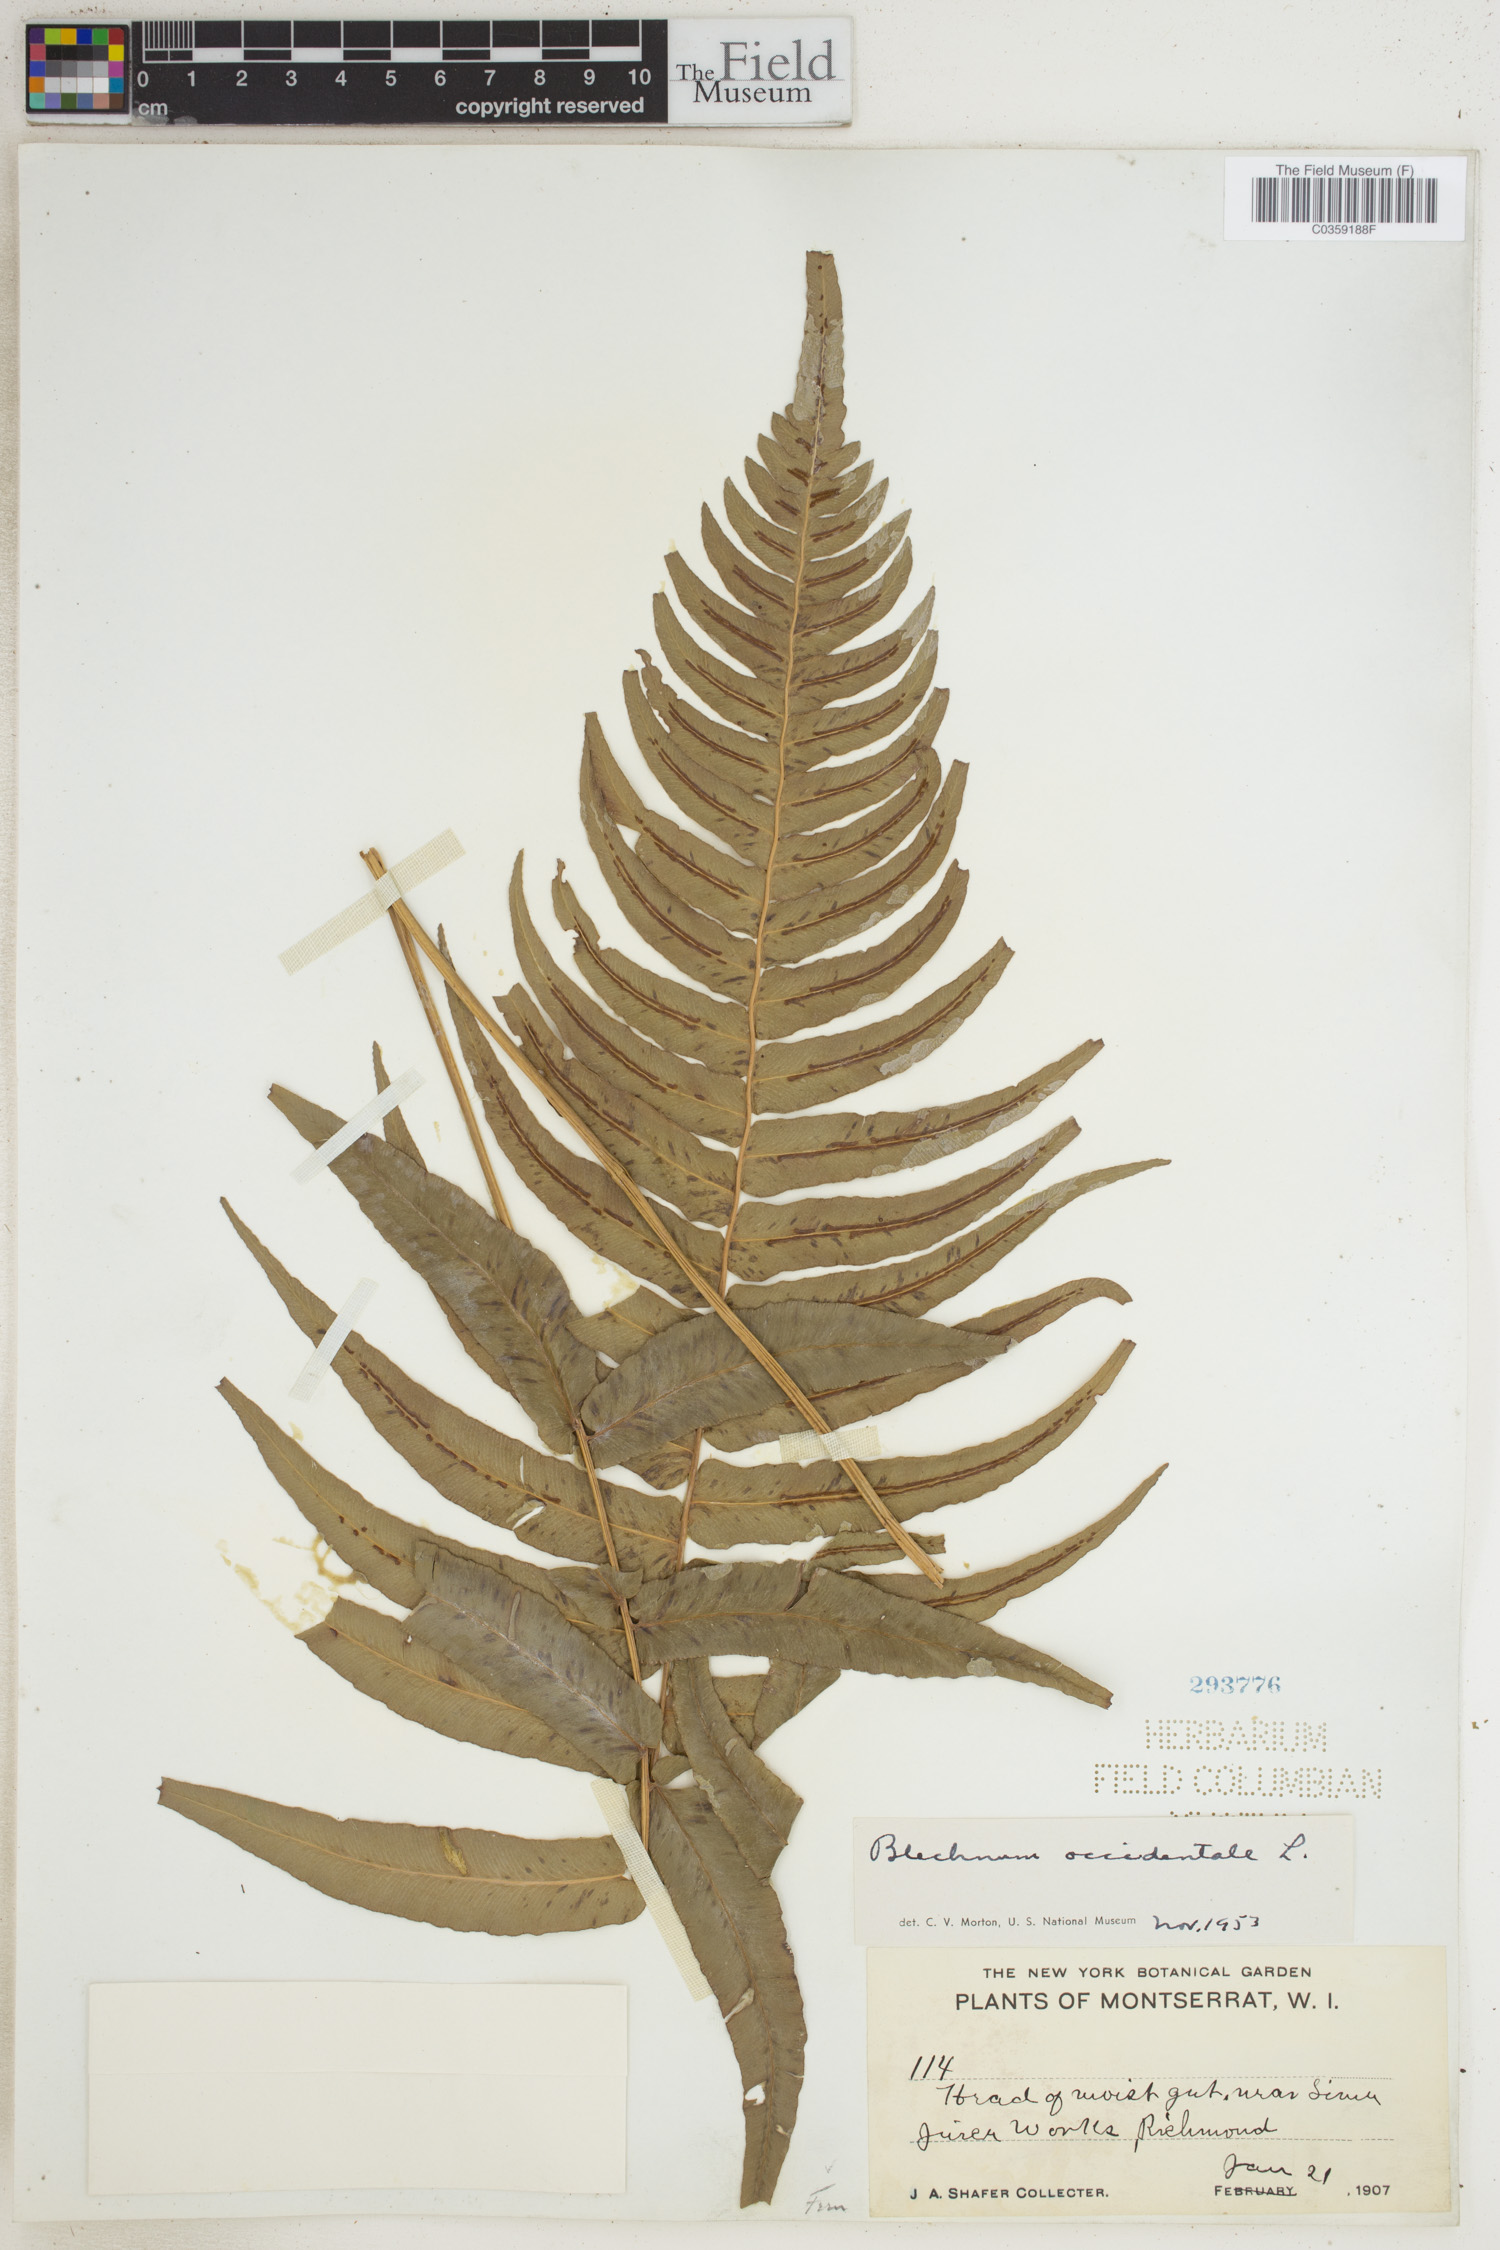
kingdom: Plantae
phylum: Tracheophyta
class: Polypodiopsida
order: Polypodiales
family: Blechnaceae
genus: Blechnum
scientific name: Blechnum occidentale
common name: Hammock fern
